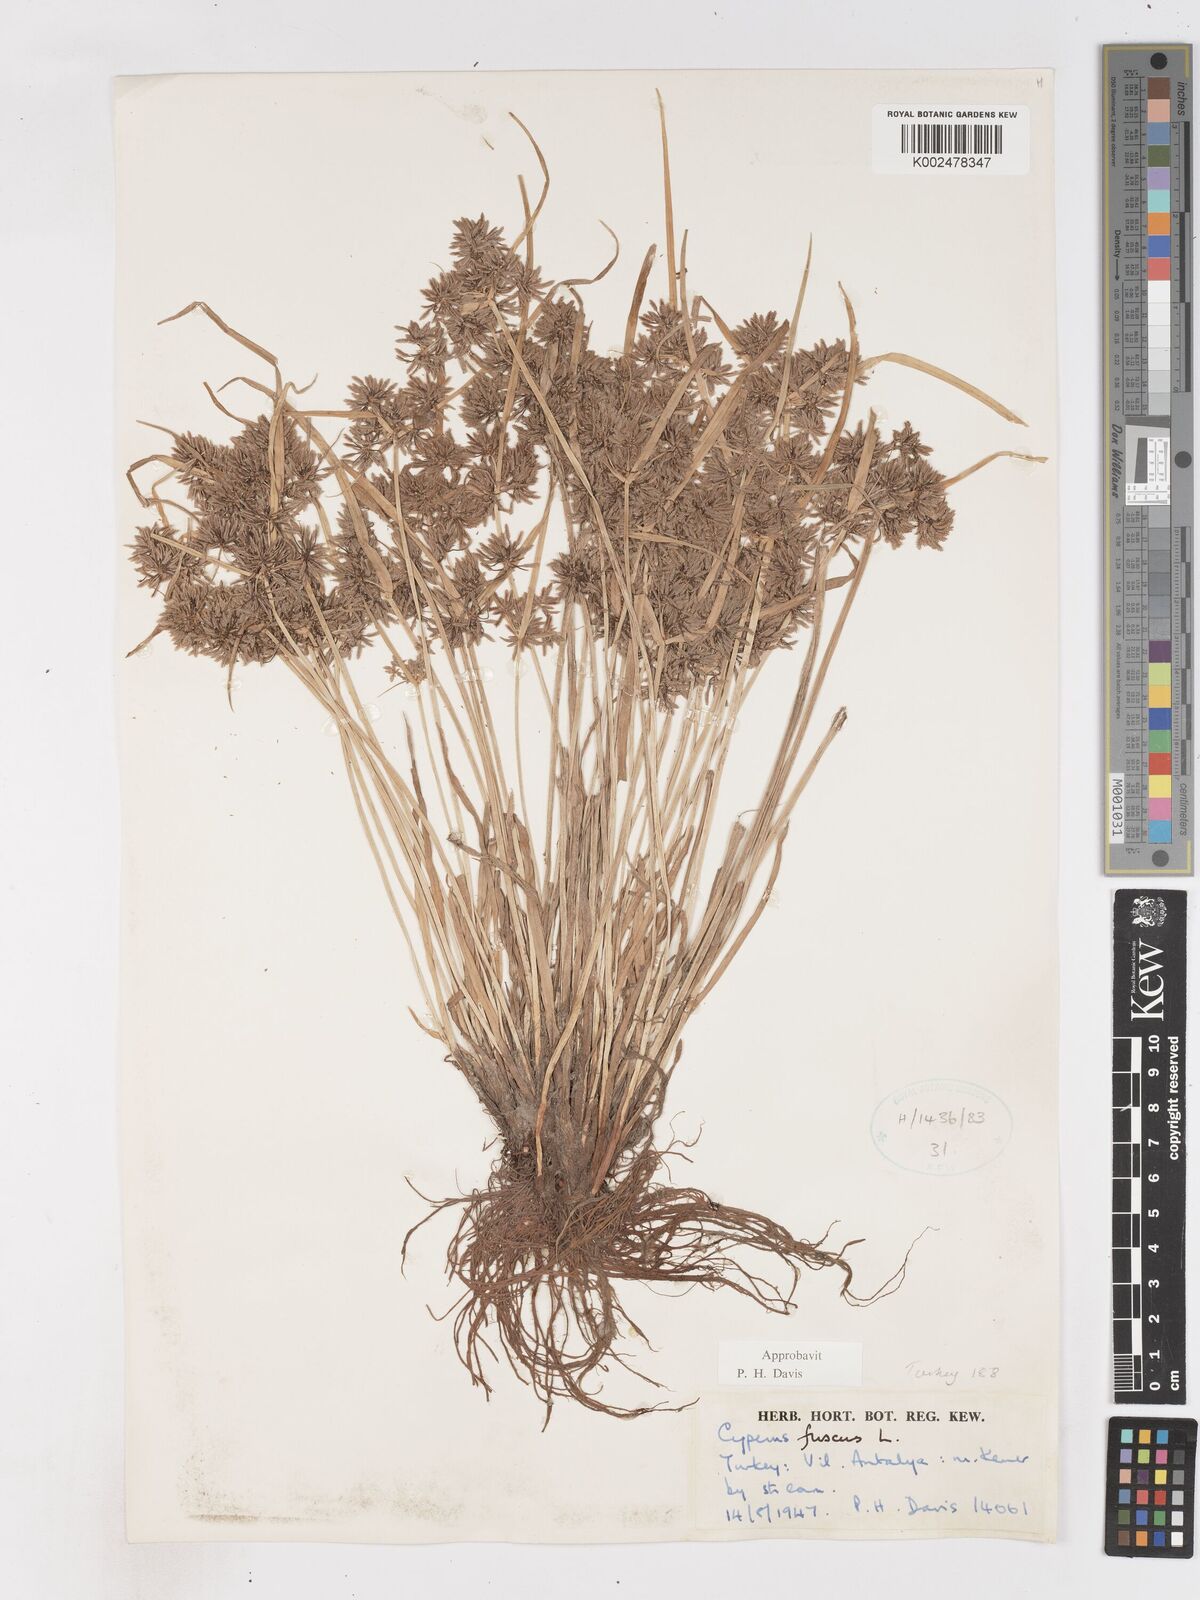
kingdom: Plantae
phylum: Tracheophyta
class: Liliopsida
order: Poales
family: Cyperaceae
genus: Cyperus
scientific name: Cyperus fuscus
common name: Brown galingale
